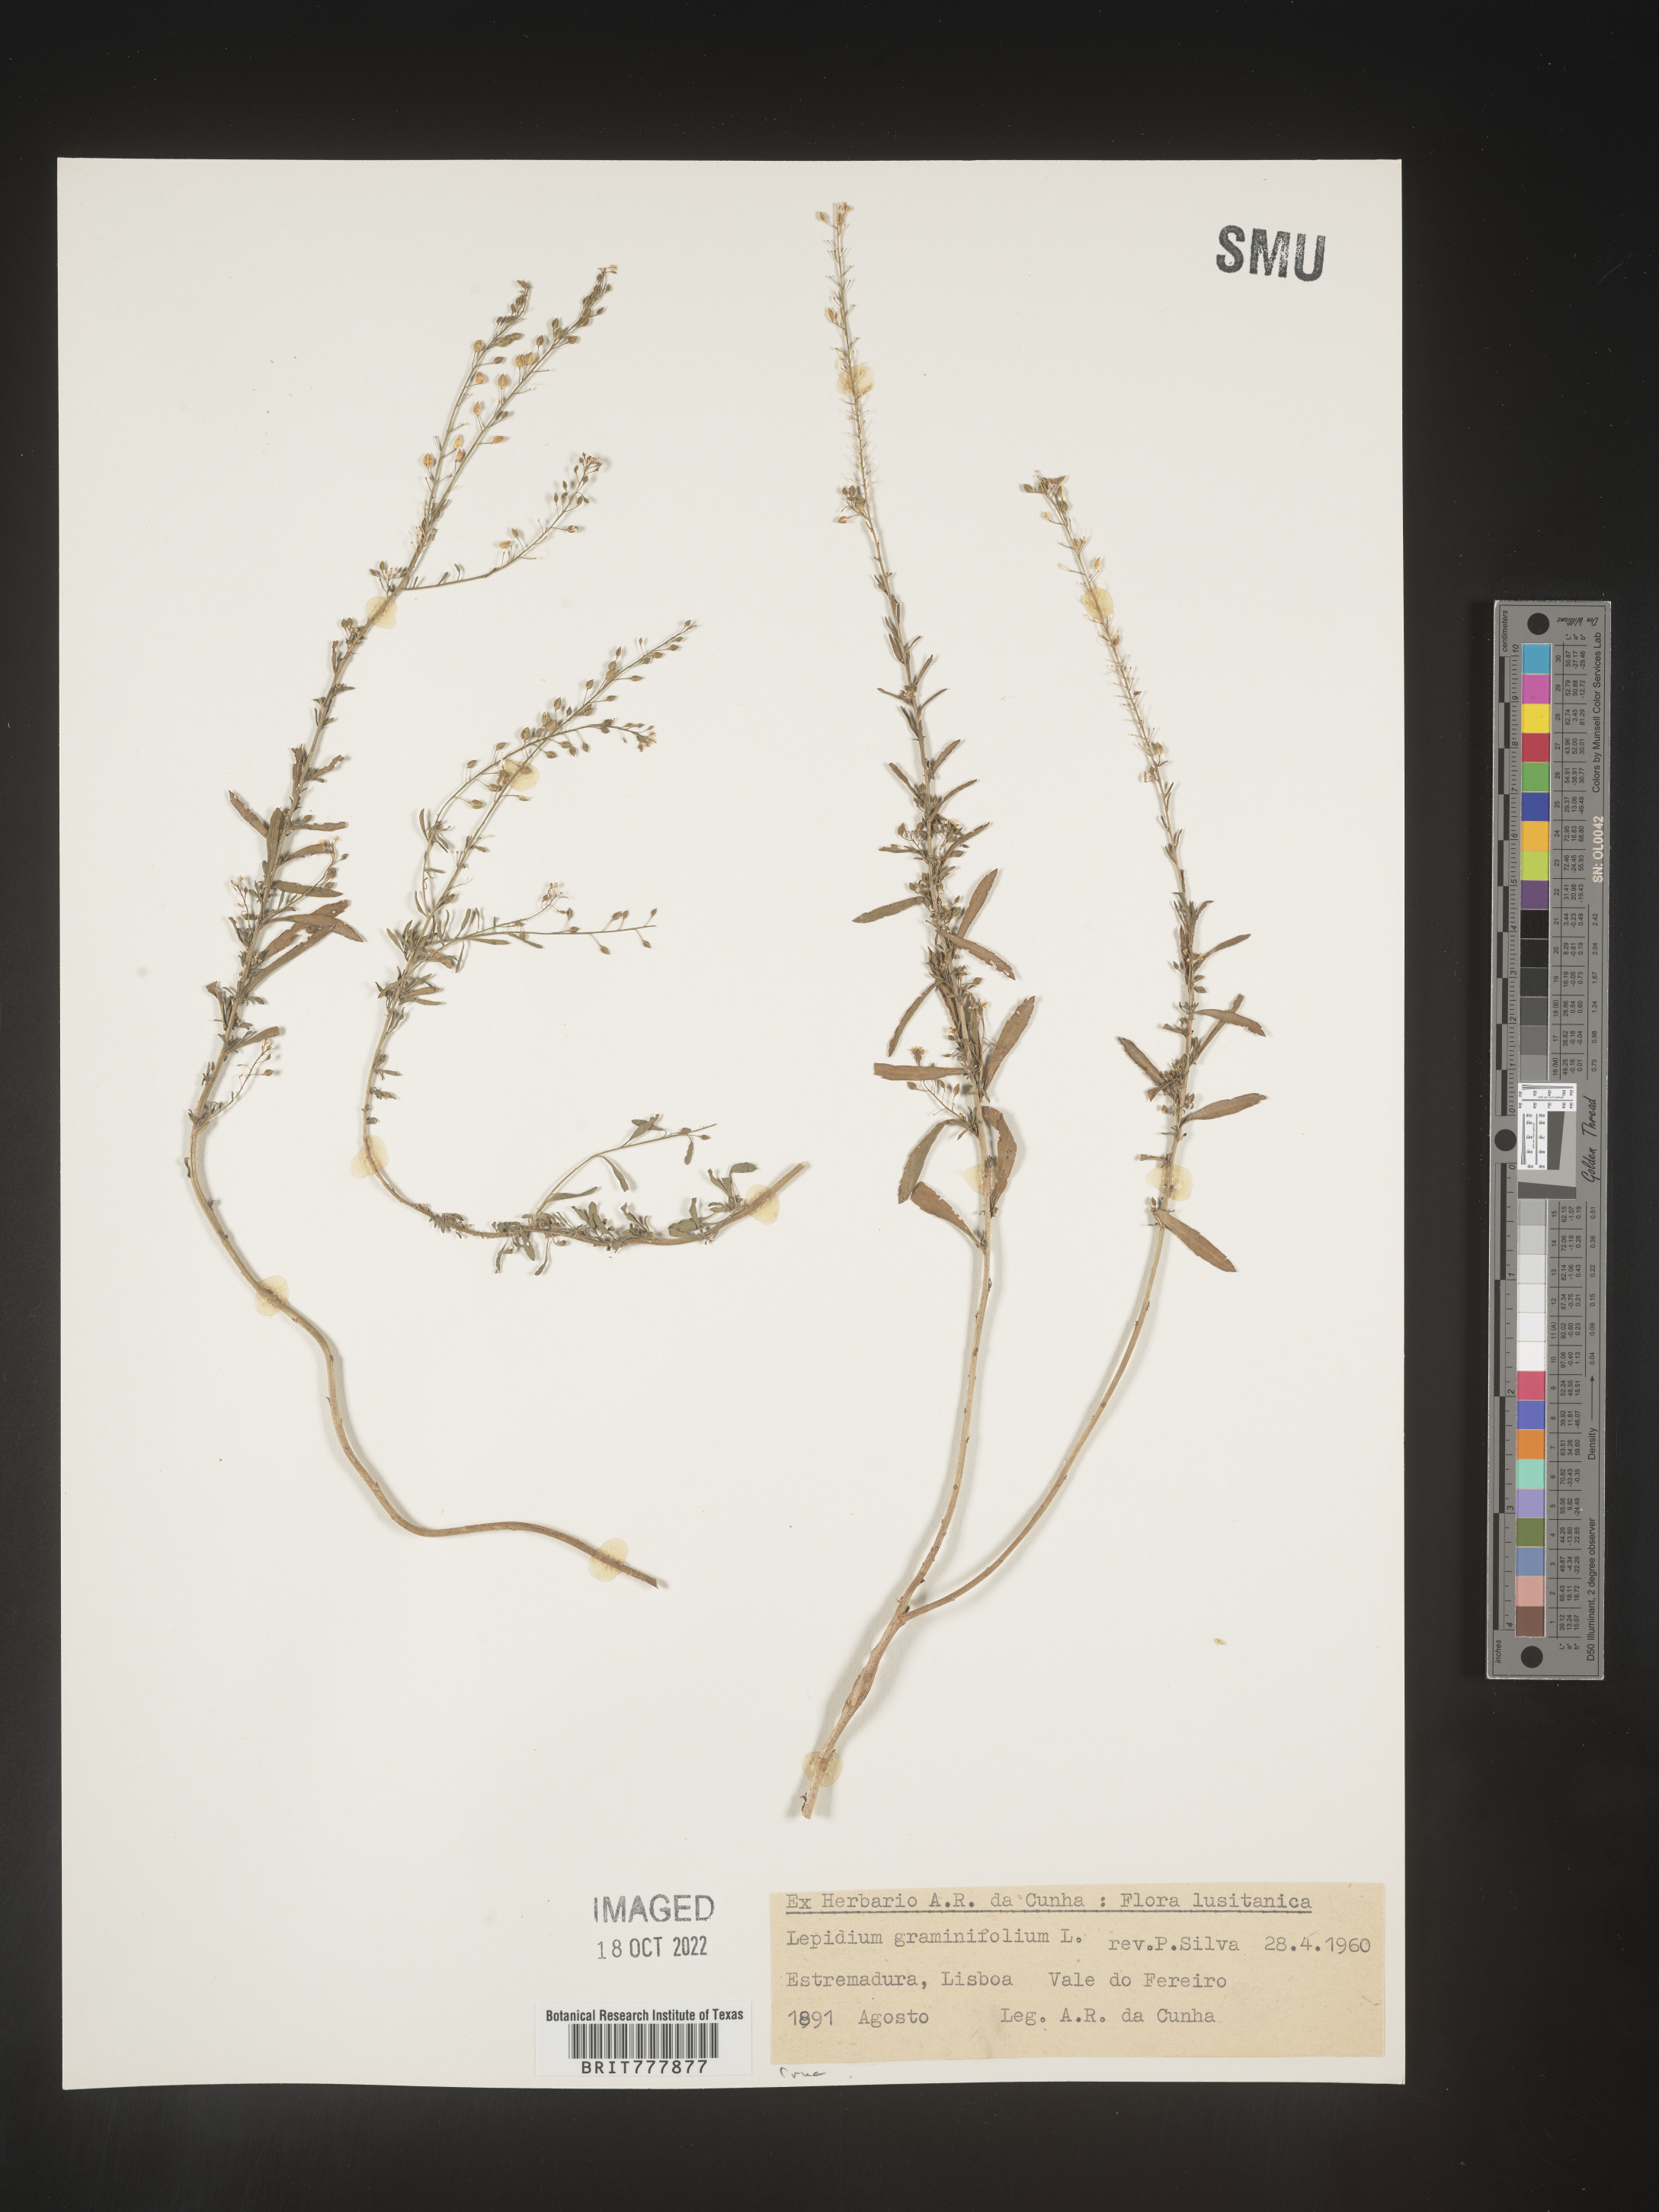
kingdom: Plantae
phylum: Tracheophyta
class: Magnoliopsida
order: Brassicales
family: Brassicaceae
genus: Lepidium
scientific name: Lepidium
